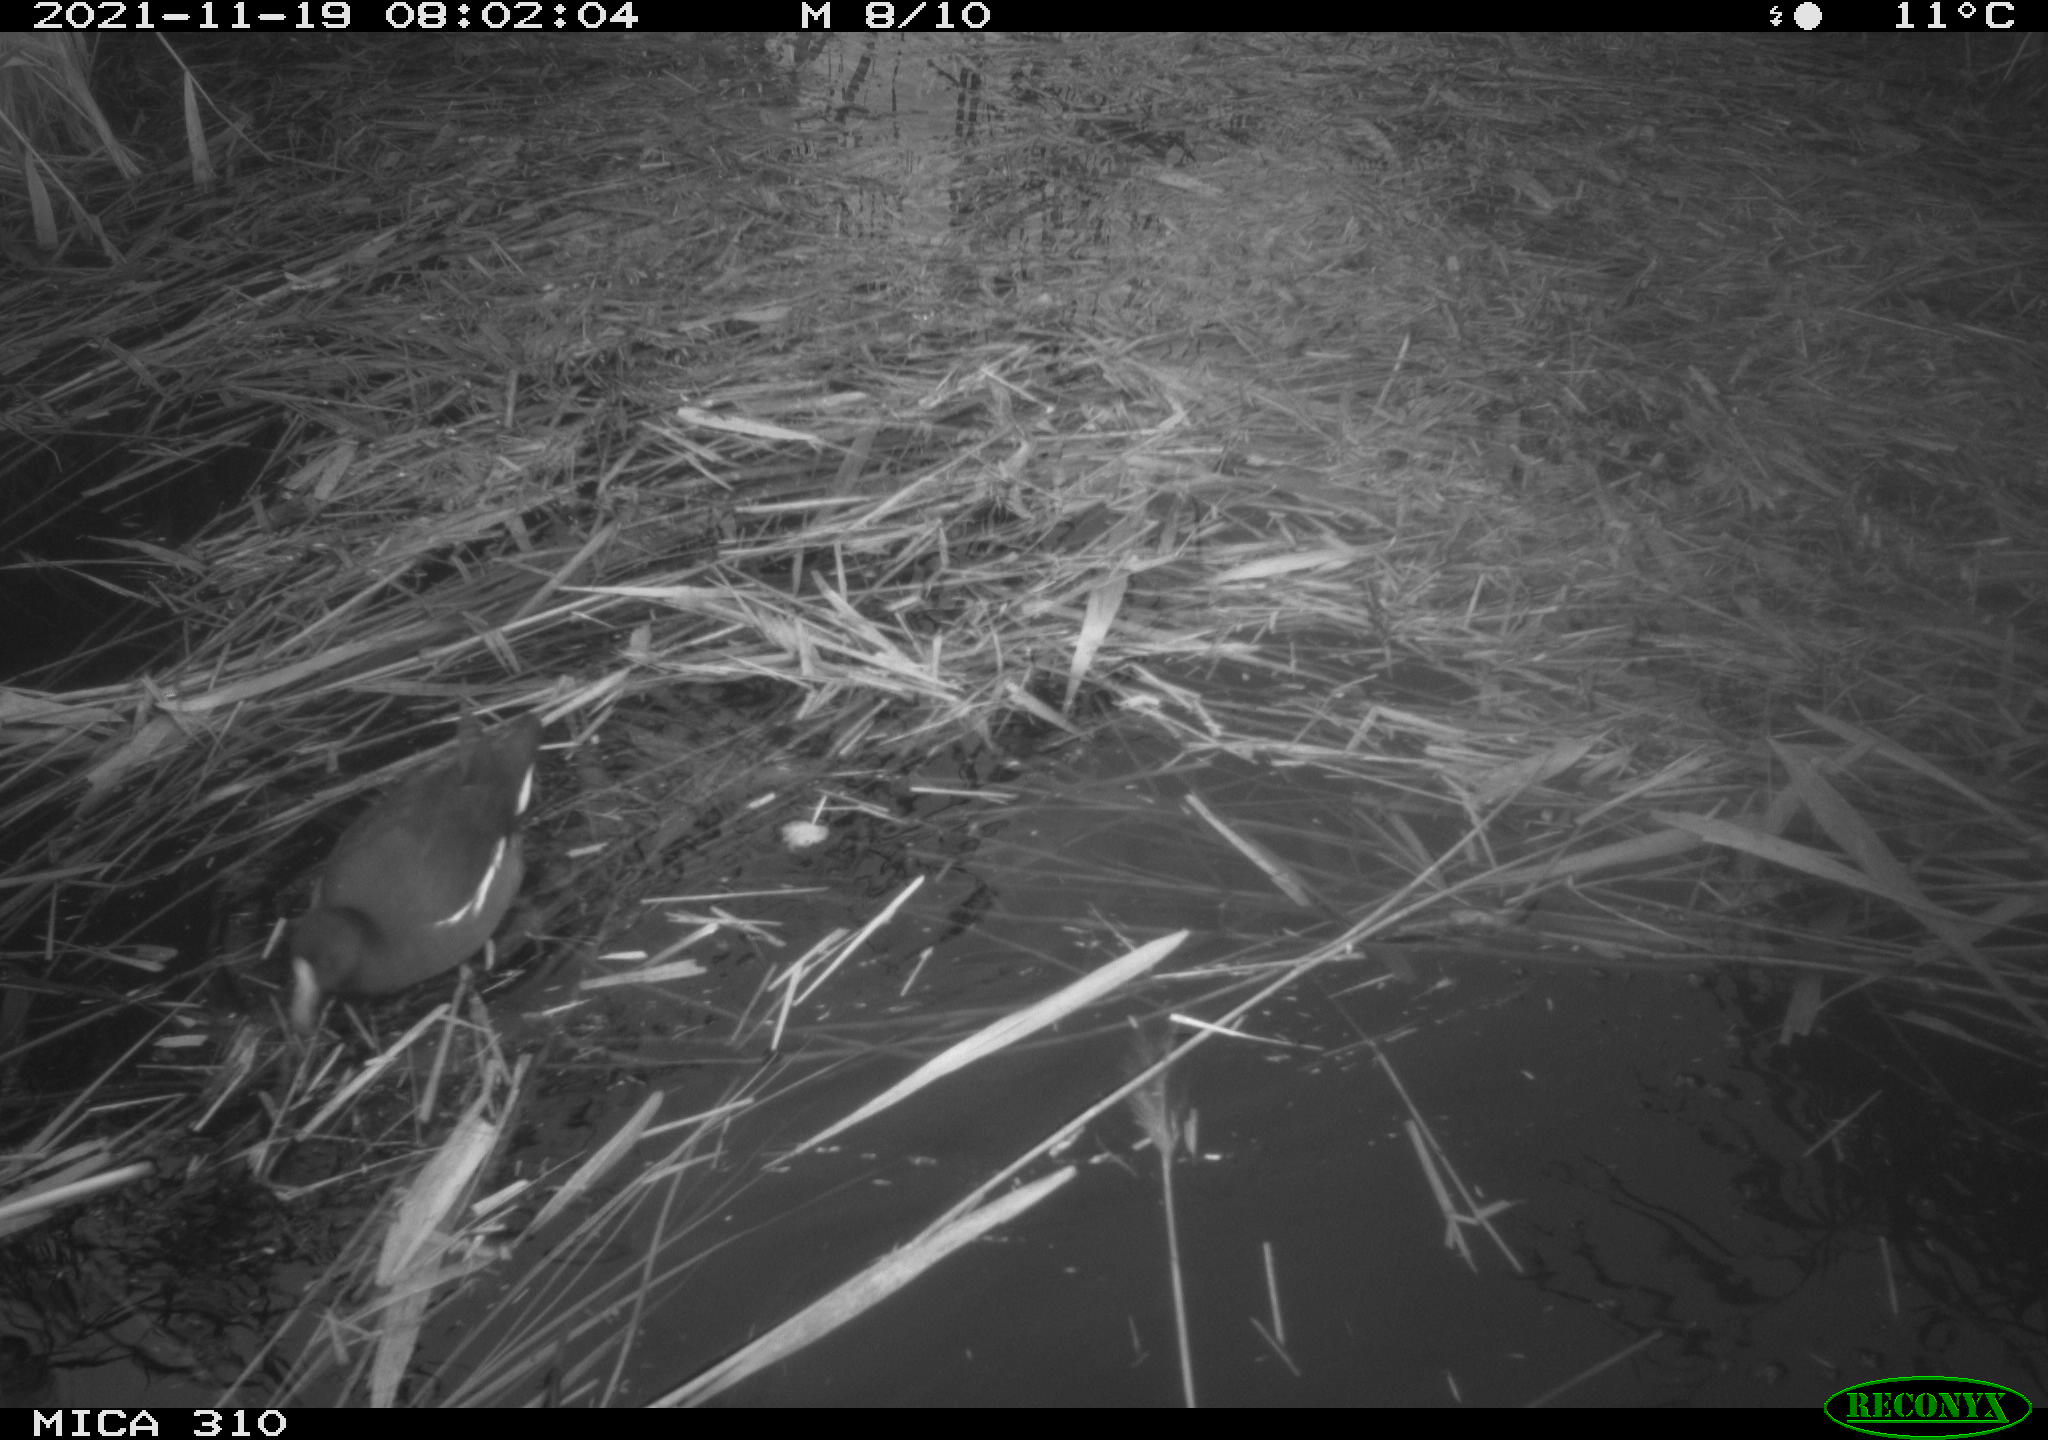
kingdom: Animalia
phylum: Chordata
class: Aves
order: Gruiformes
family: Rallidae
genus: Gallinula
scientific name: Gallinula chloropus
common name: Common moorhen
